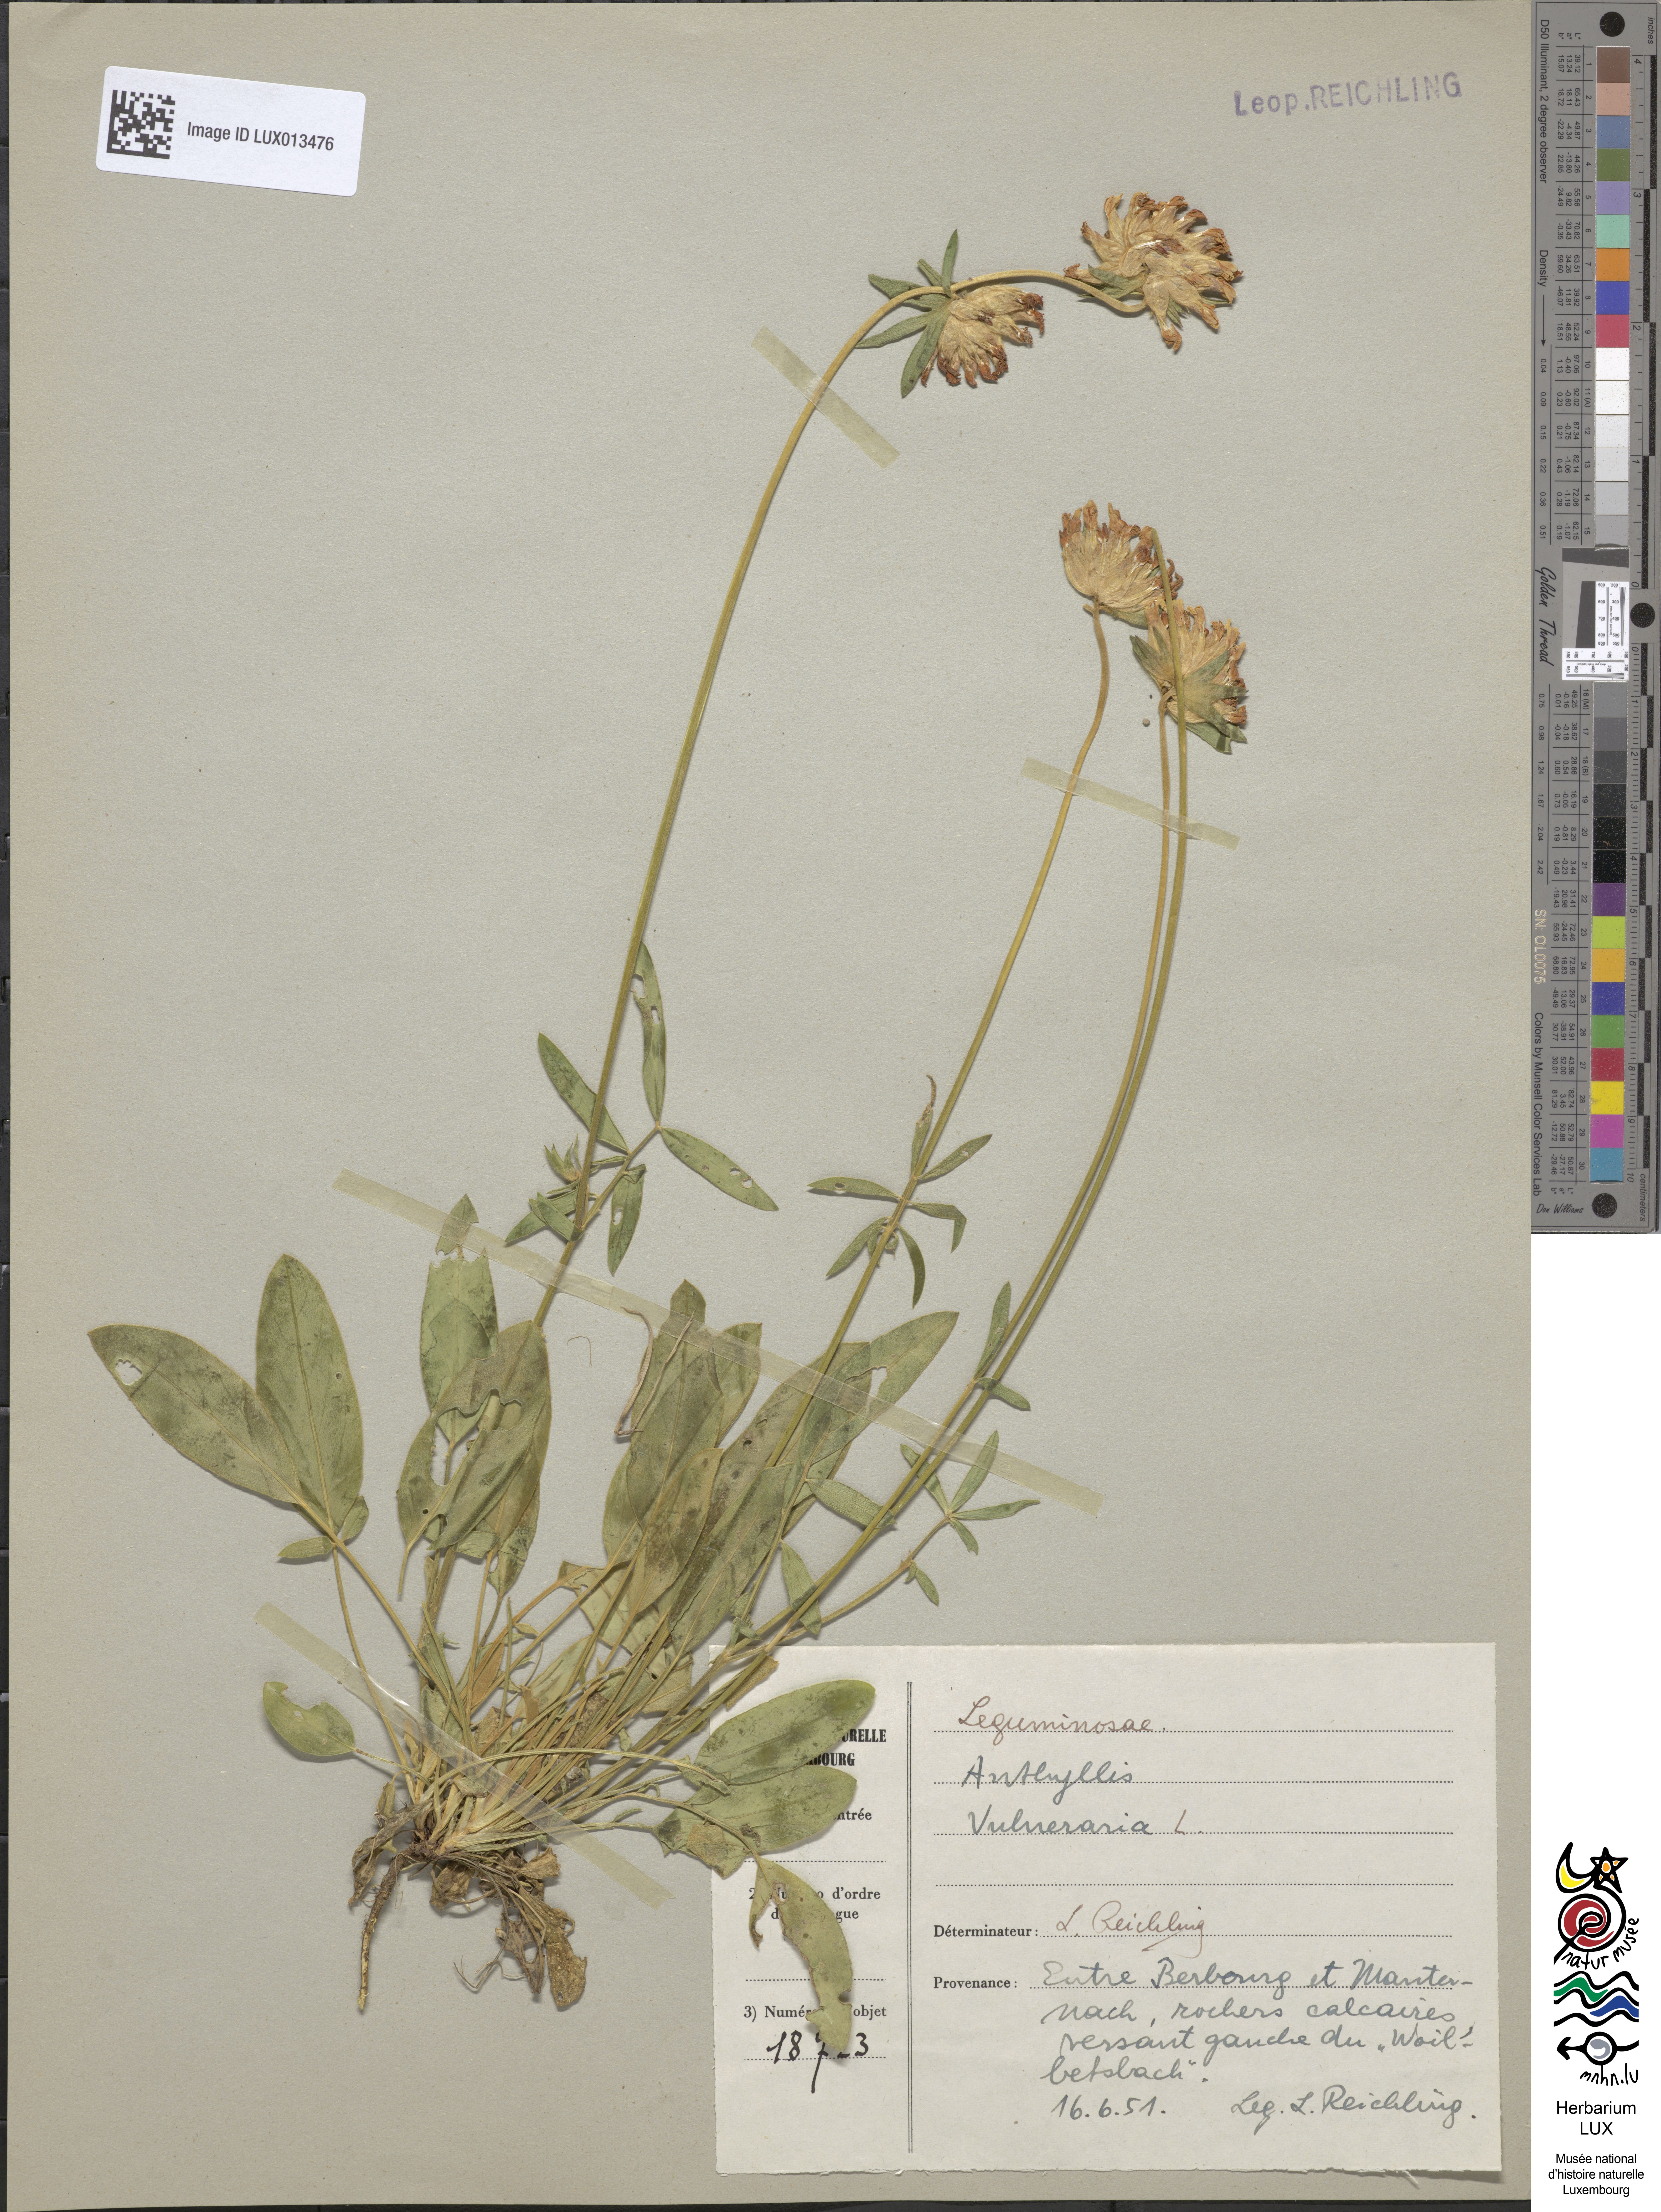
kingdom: Plantae
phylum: Tracheophyta
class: Magnoliopsida
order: Fabales
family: Fabaceae
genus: Anthyllis
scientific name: Anthyllis vulneraria
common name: Kidney vetch
